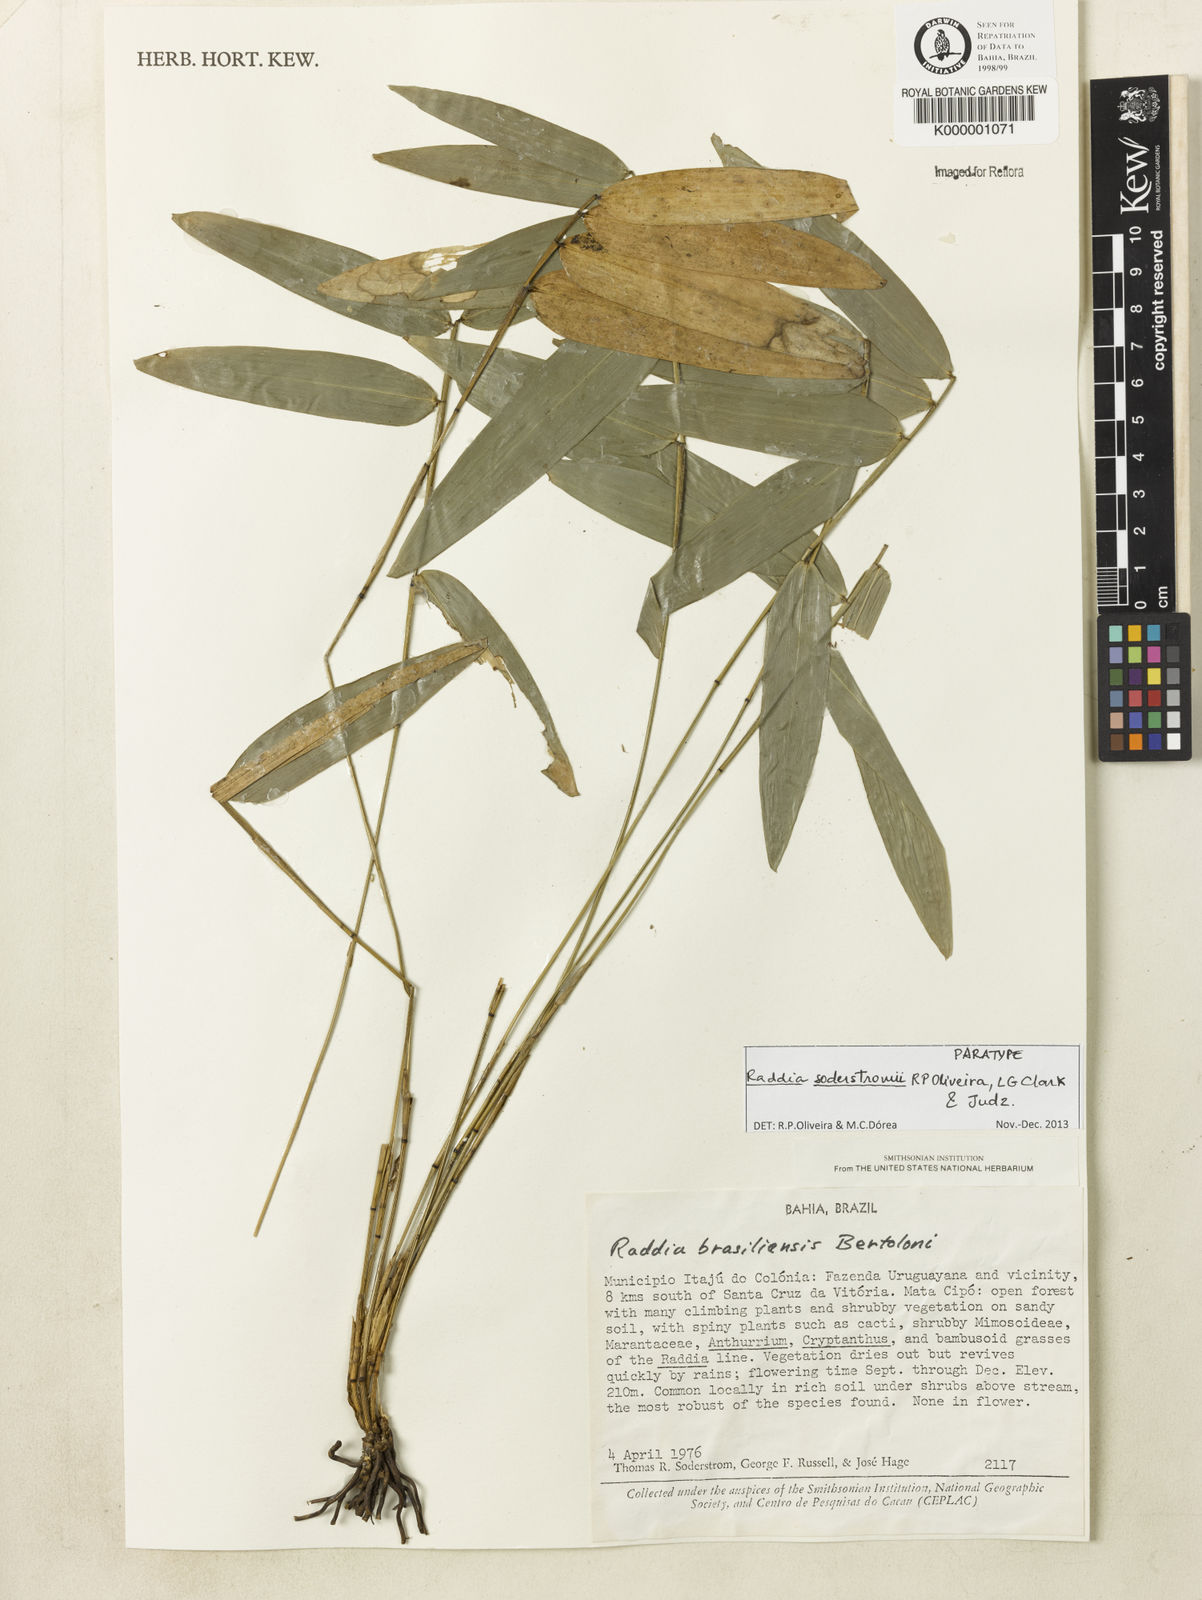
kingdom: Plantae
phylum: Tracheophyta
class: Liliopsida
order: Poales
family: Poaceae
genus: Raddia
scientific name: Raddia brasiliensis
